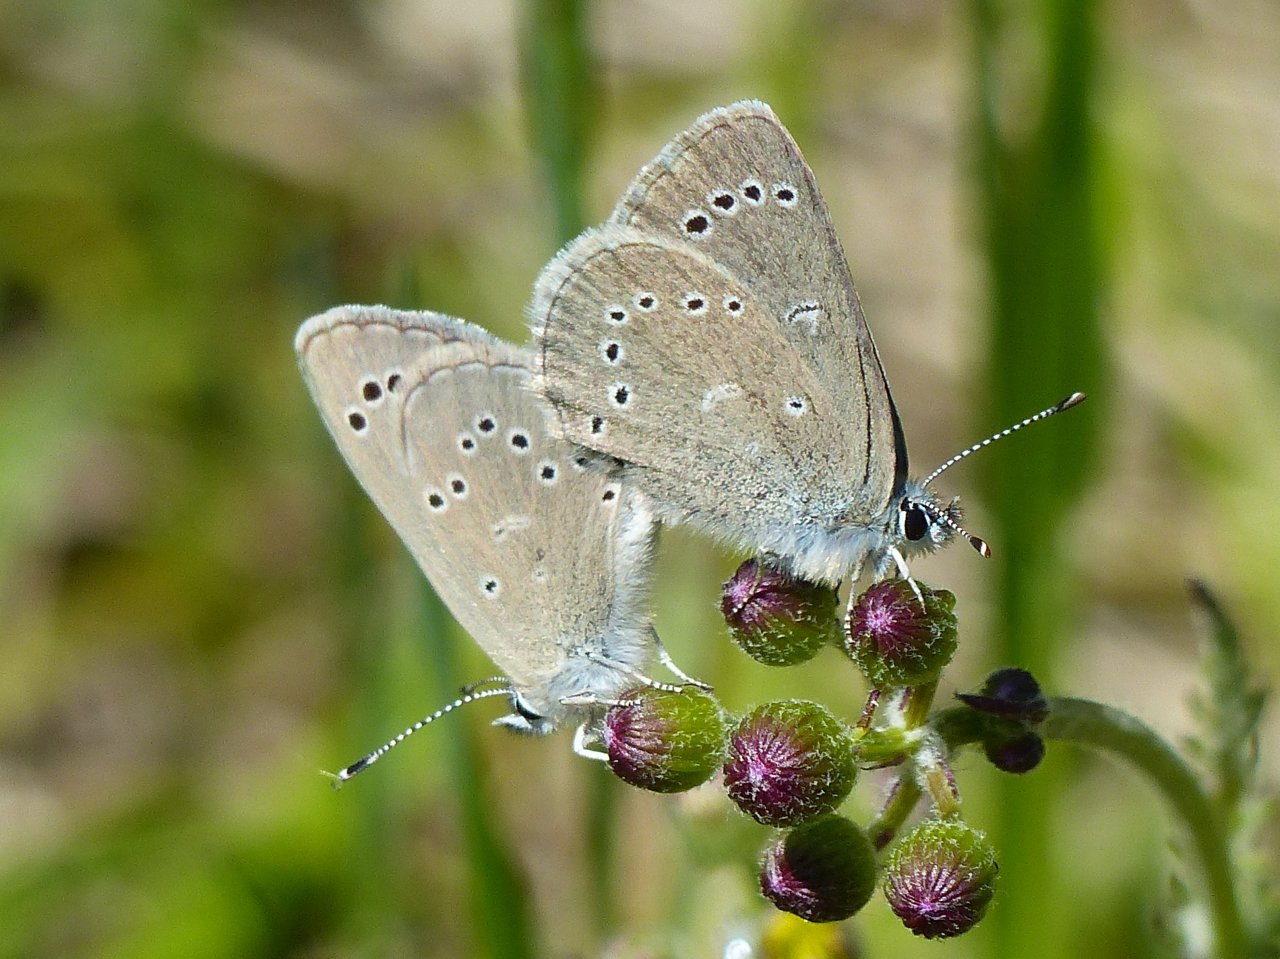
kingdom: Animalia
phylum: Arthropoda
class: Insecta
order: Lepidoptera
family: Lycaenidae
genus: Glaucopsyche
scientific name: Glaucopsyche lygdamus
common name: Silvery Blue
